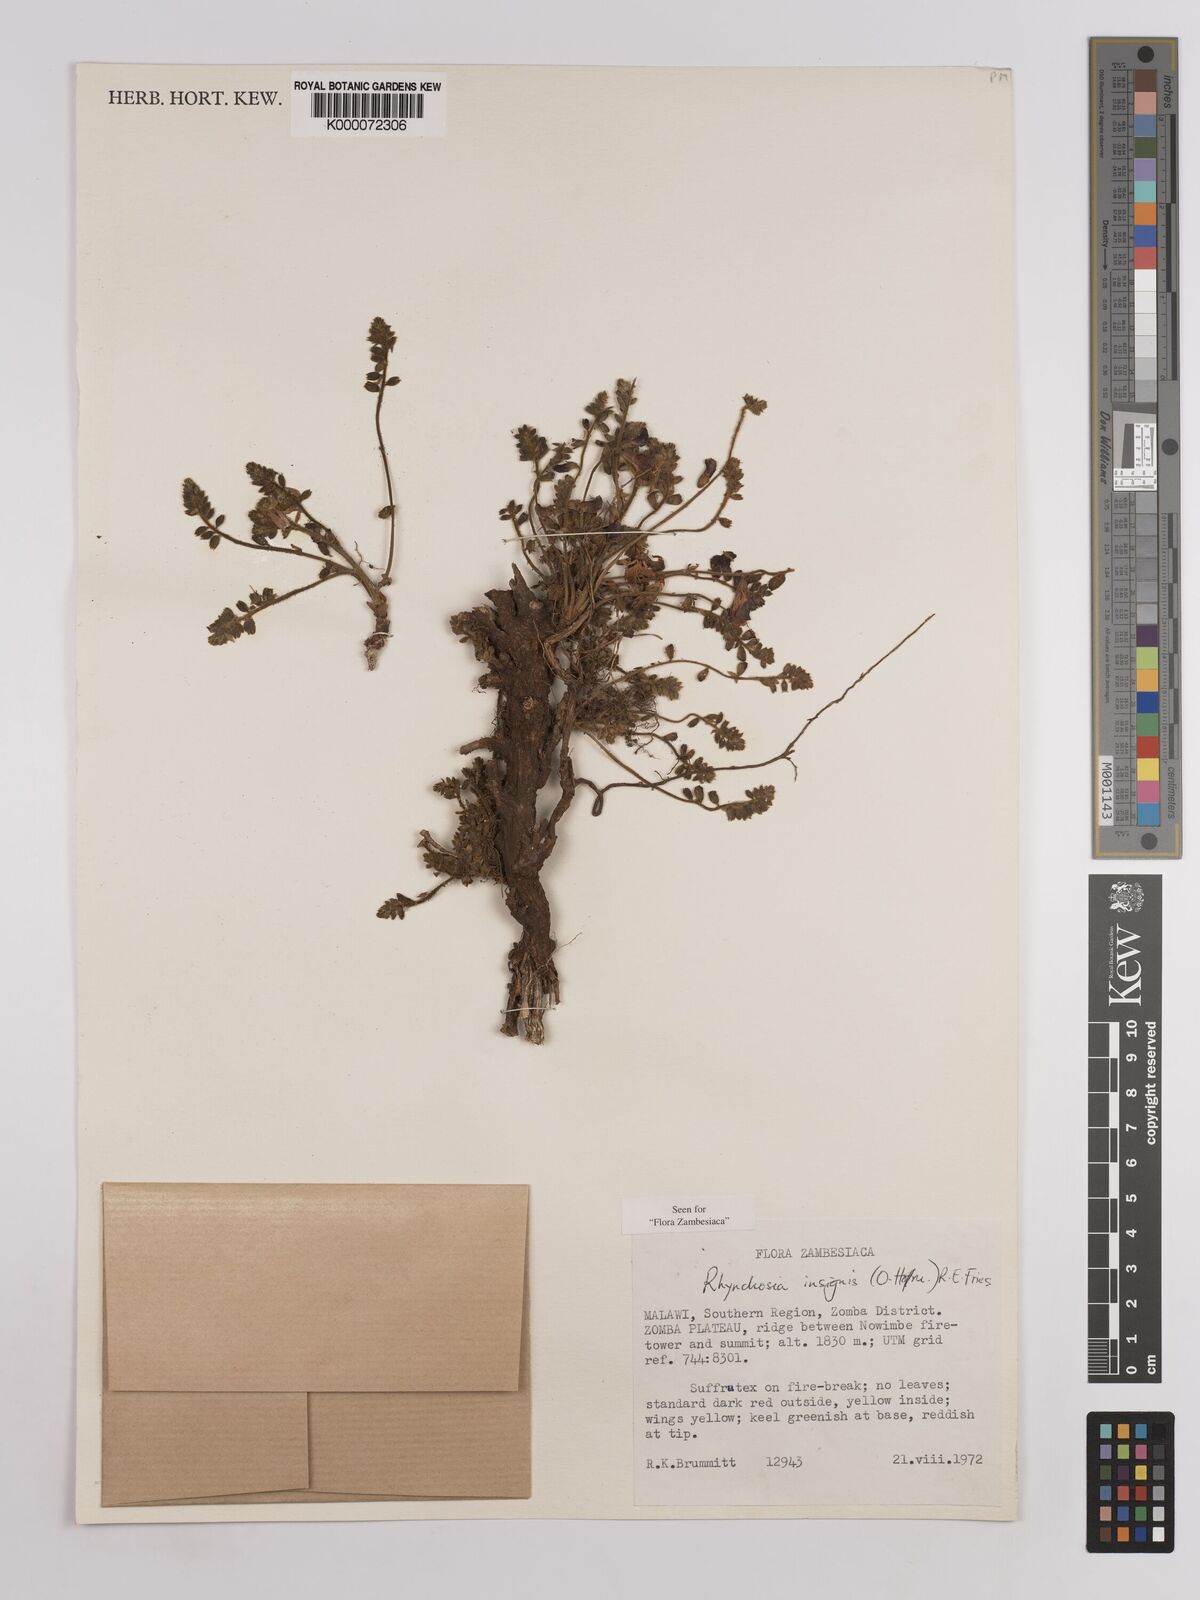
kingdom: Plantae
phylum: Tracheophyta
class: Magnoliopsida
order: Fabales
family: Fabaceae
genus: Rhynchosia
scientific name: Rhynchosia insignis
